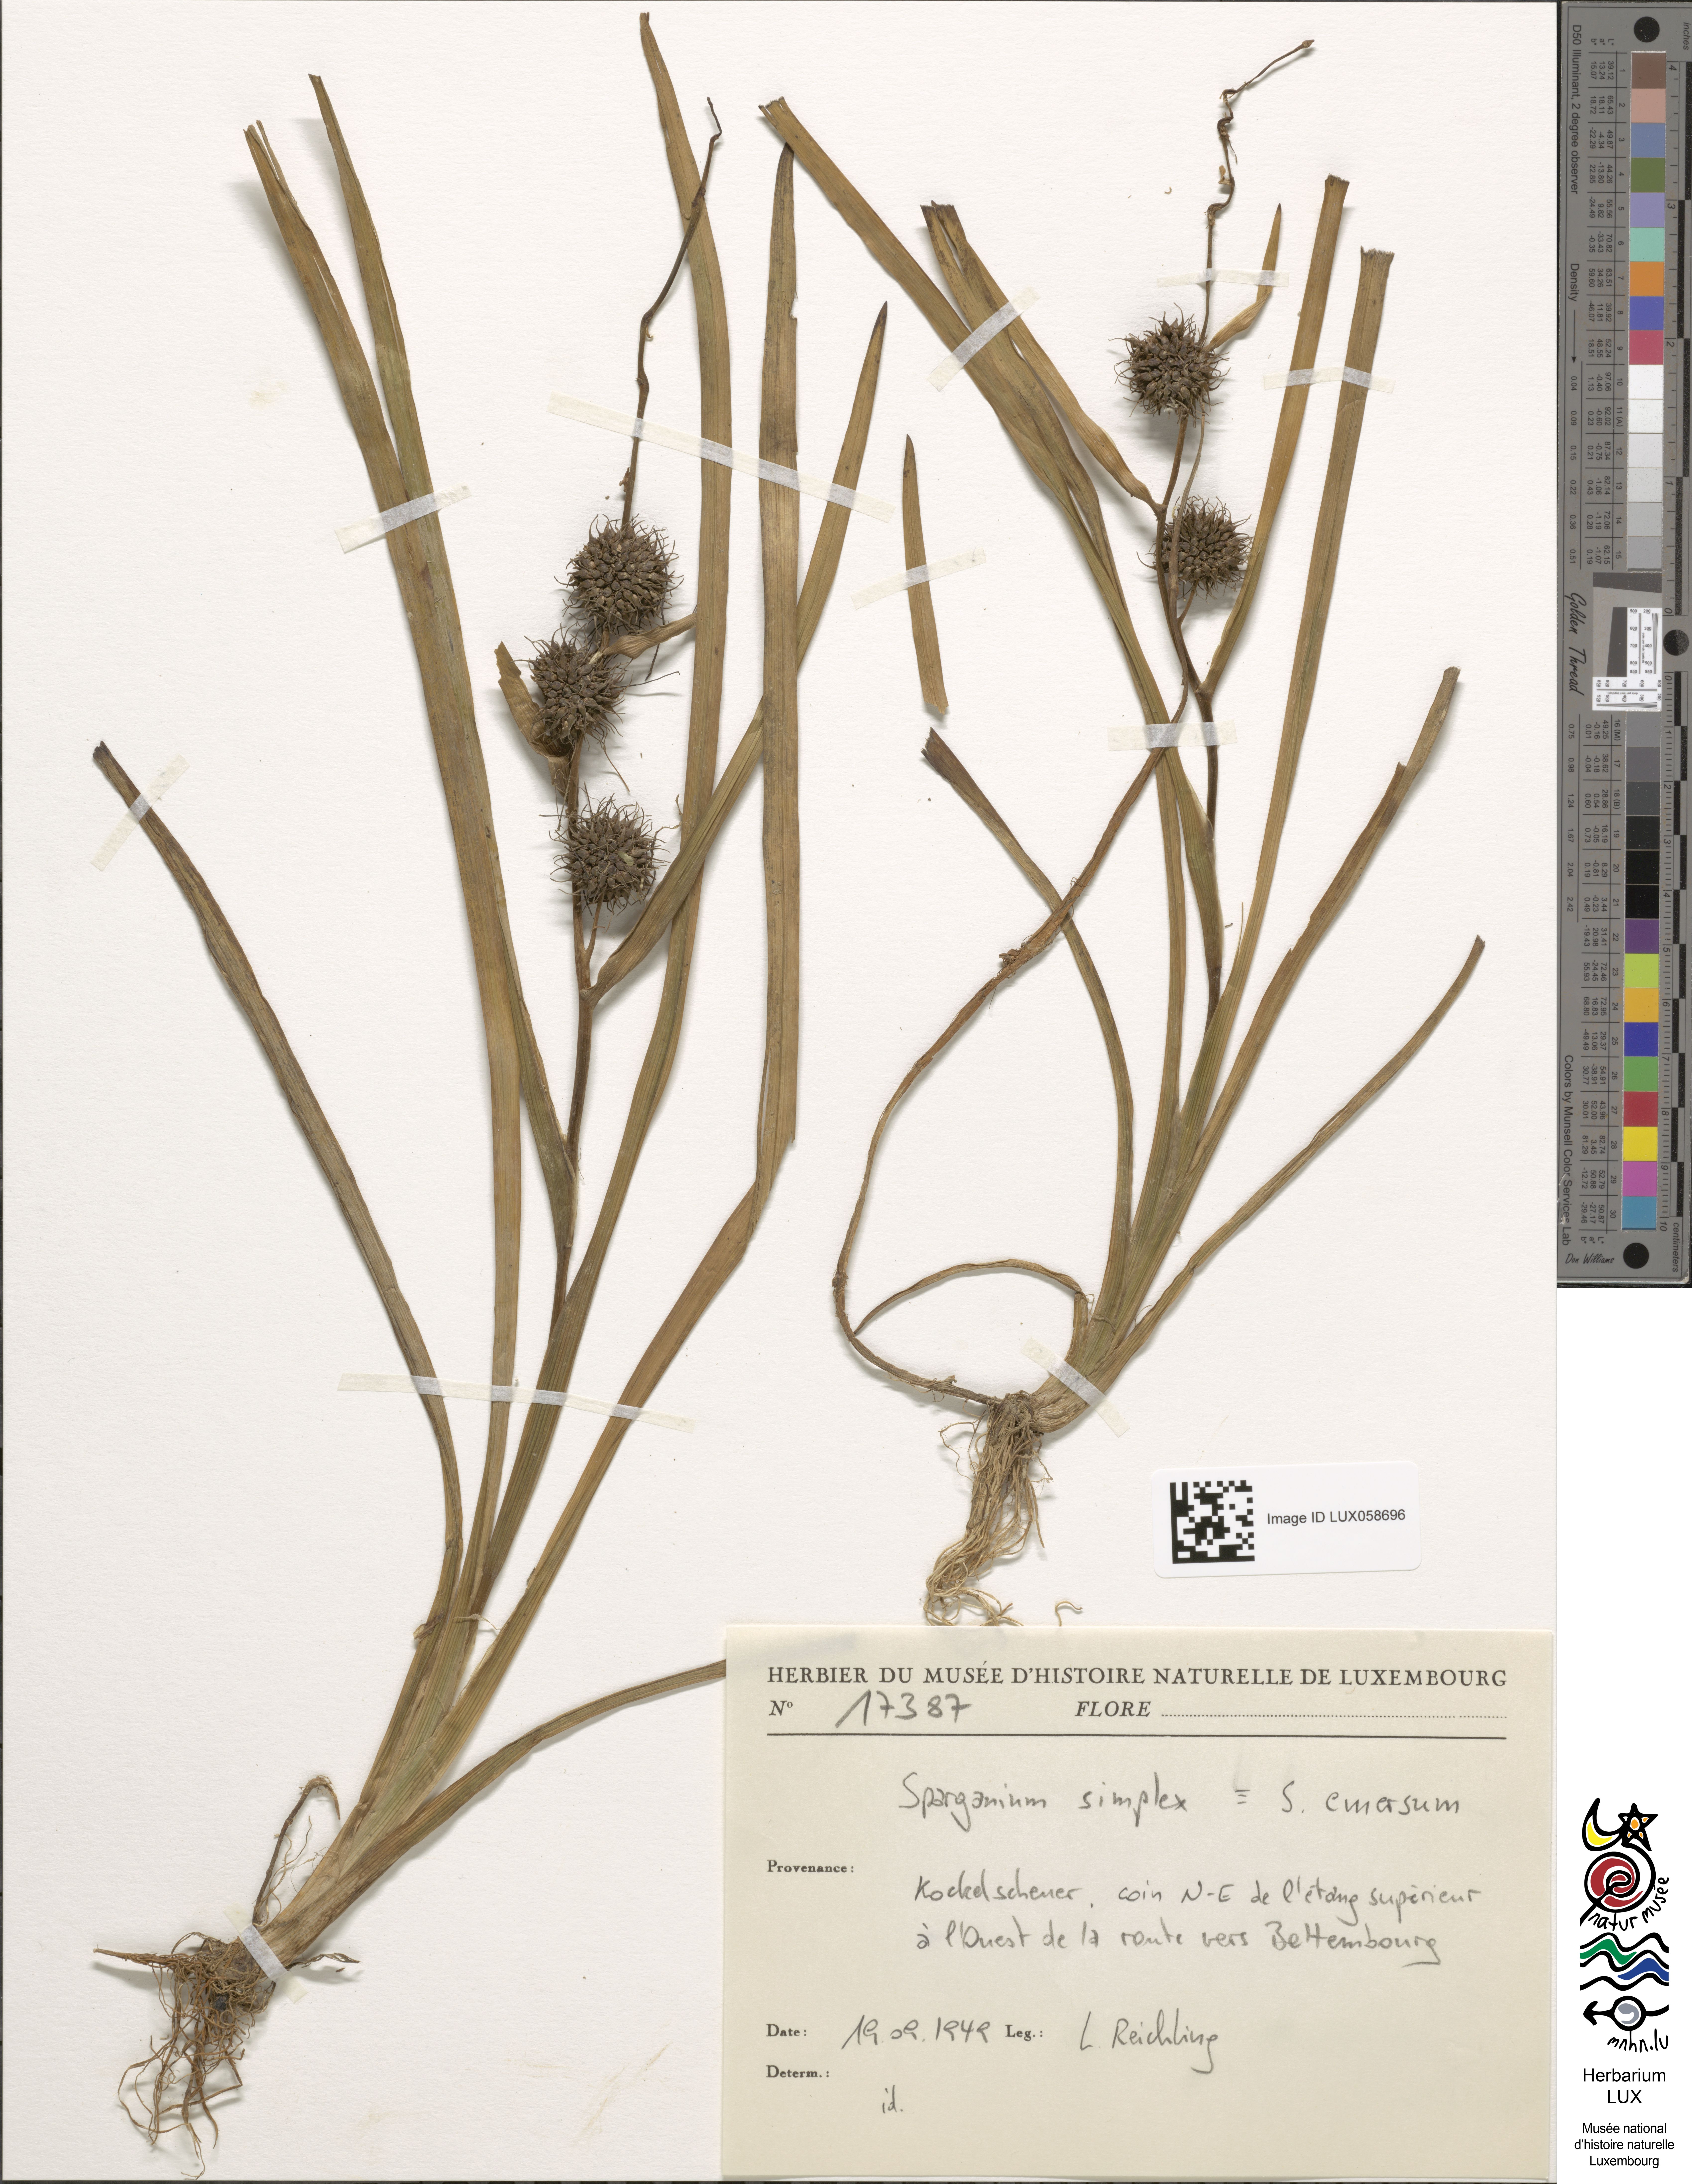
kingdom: Plantae
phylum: Tracheophyta
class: Liliopsida
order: Poales
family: Typhaceae
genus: Sparganium
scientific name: Sparganium emersum
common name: Unbranched bur-reed
